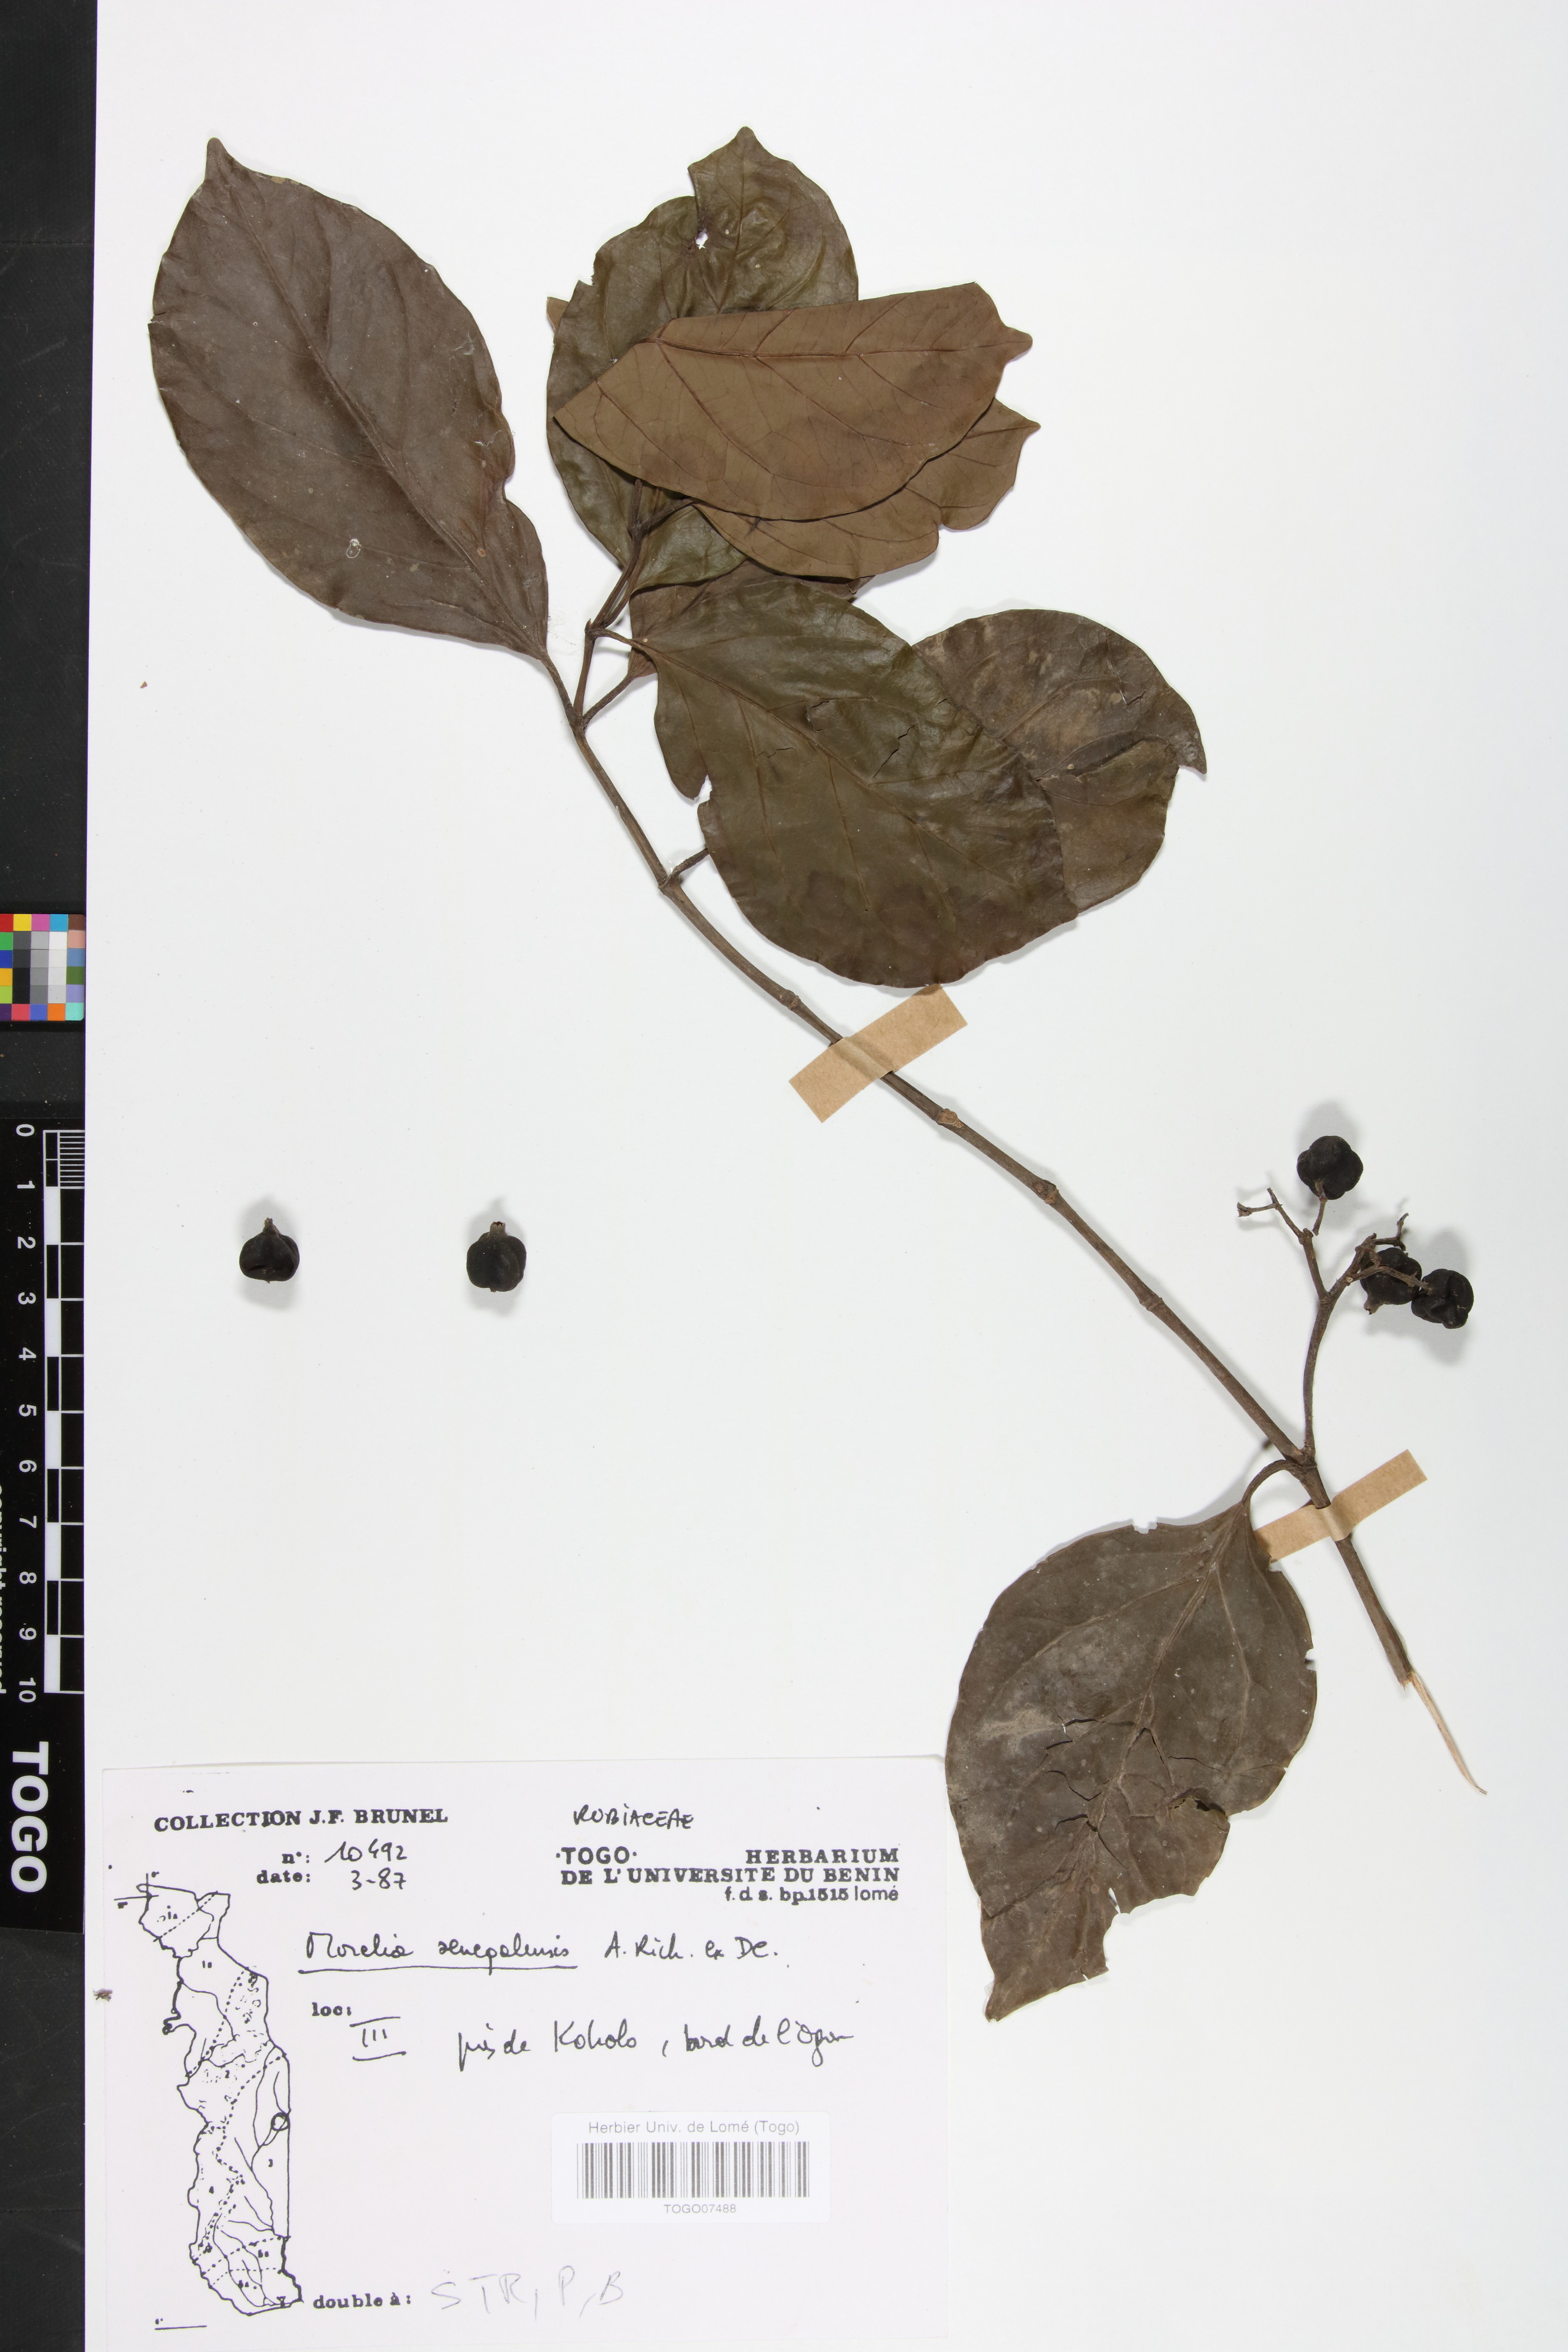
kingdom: Plantae
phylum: Tracheophyta
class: Magnoliopsida
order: Gentianales
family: Rubiaceae
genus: Morelia
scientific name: Morelia senegalensis
